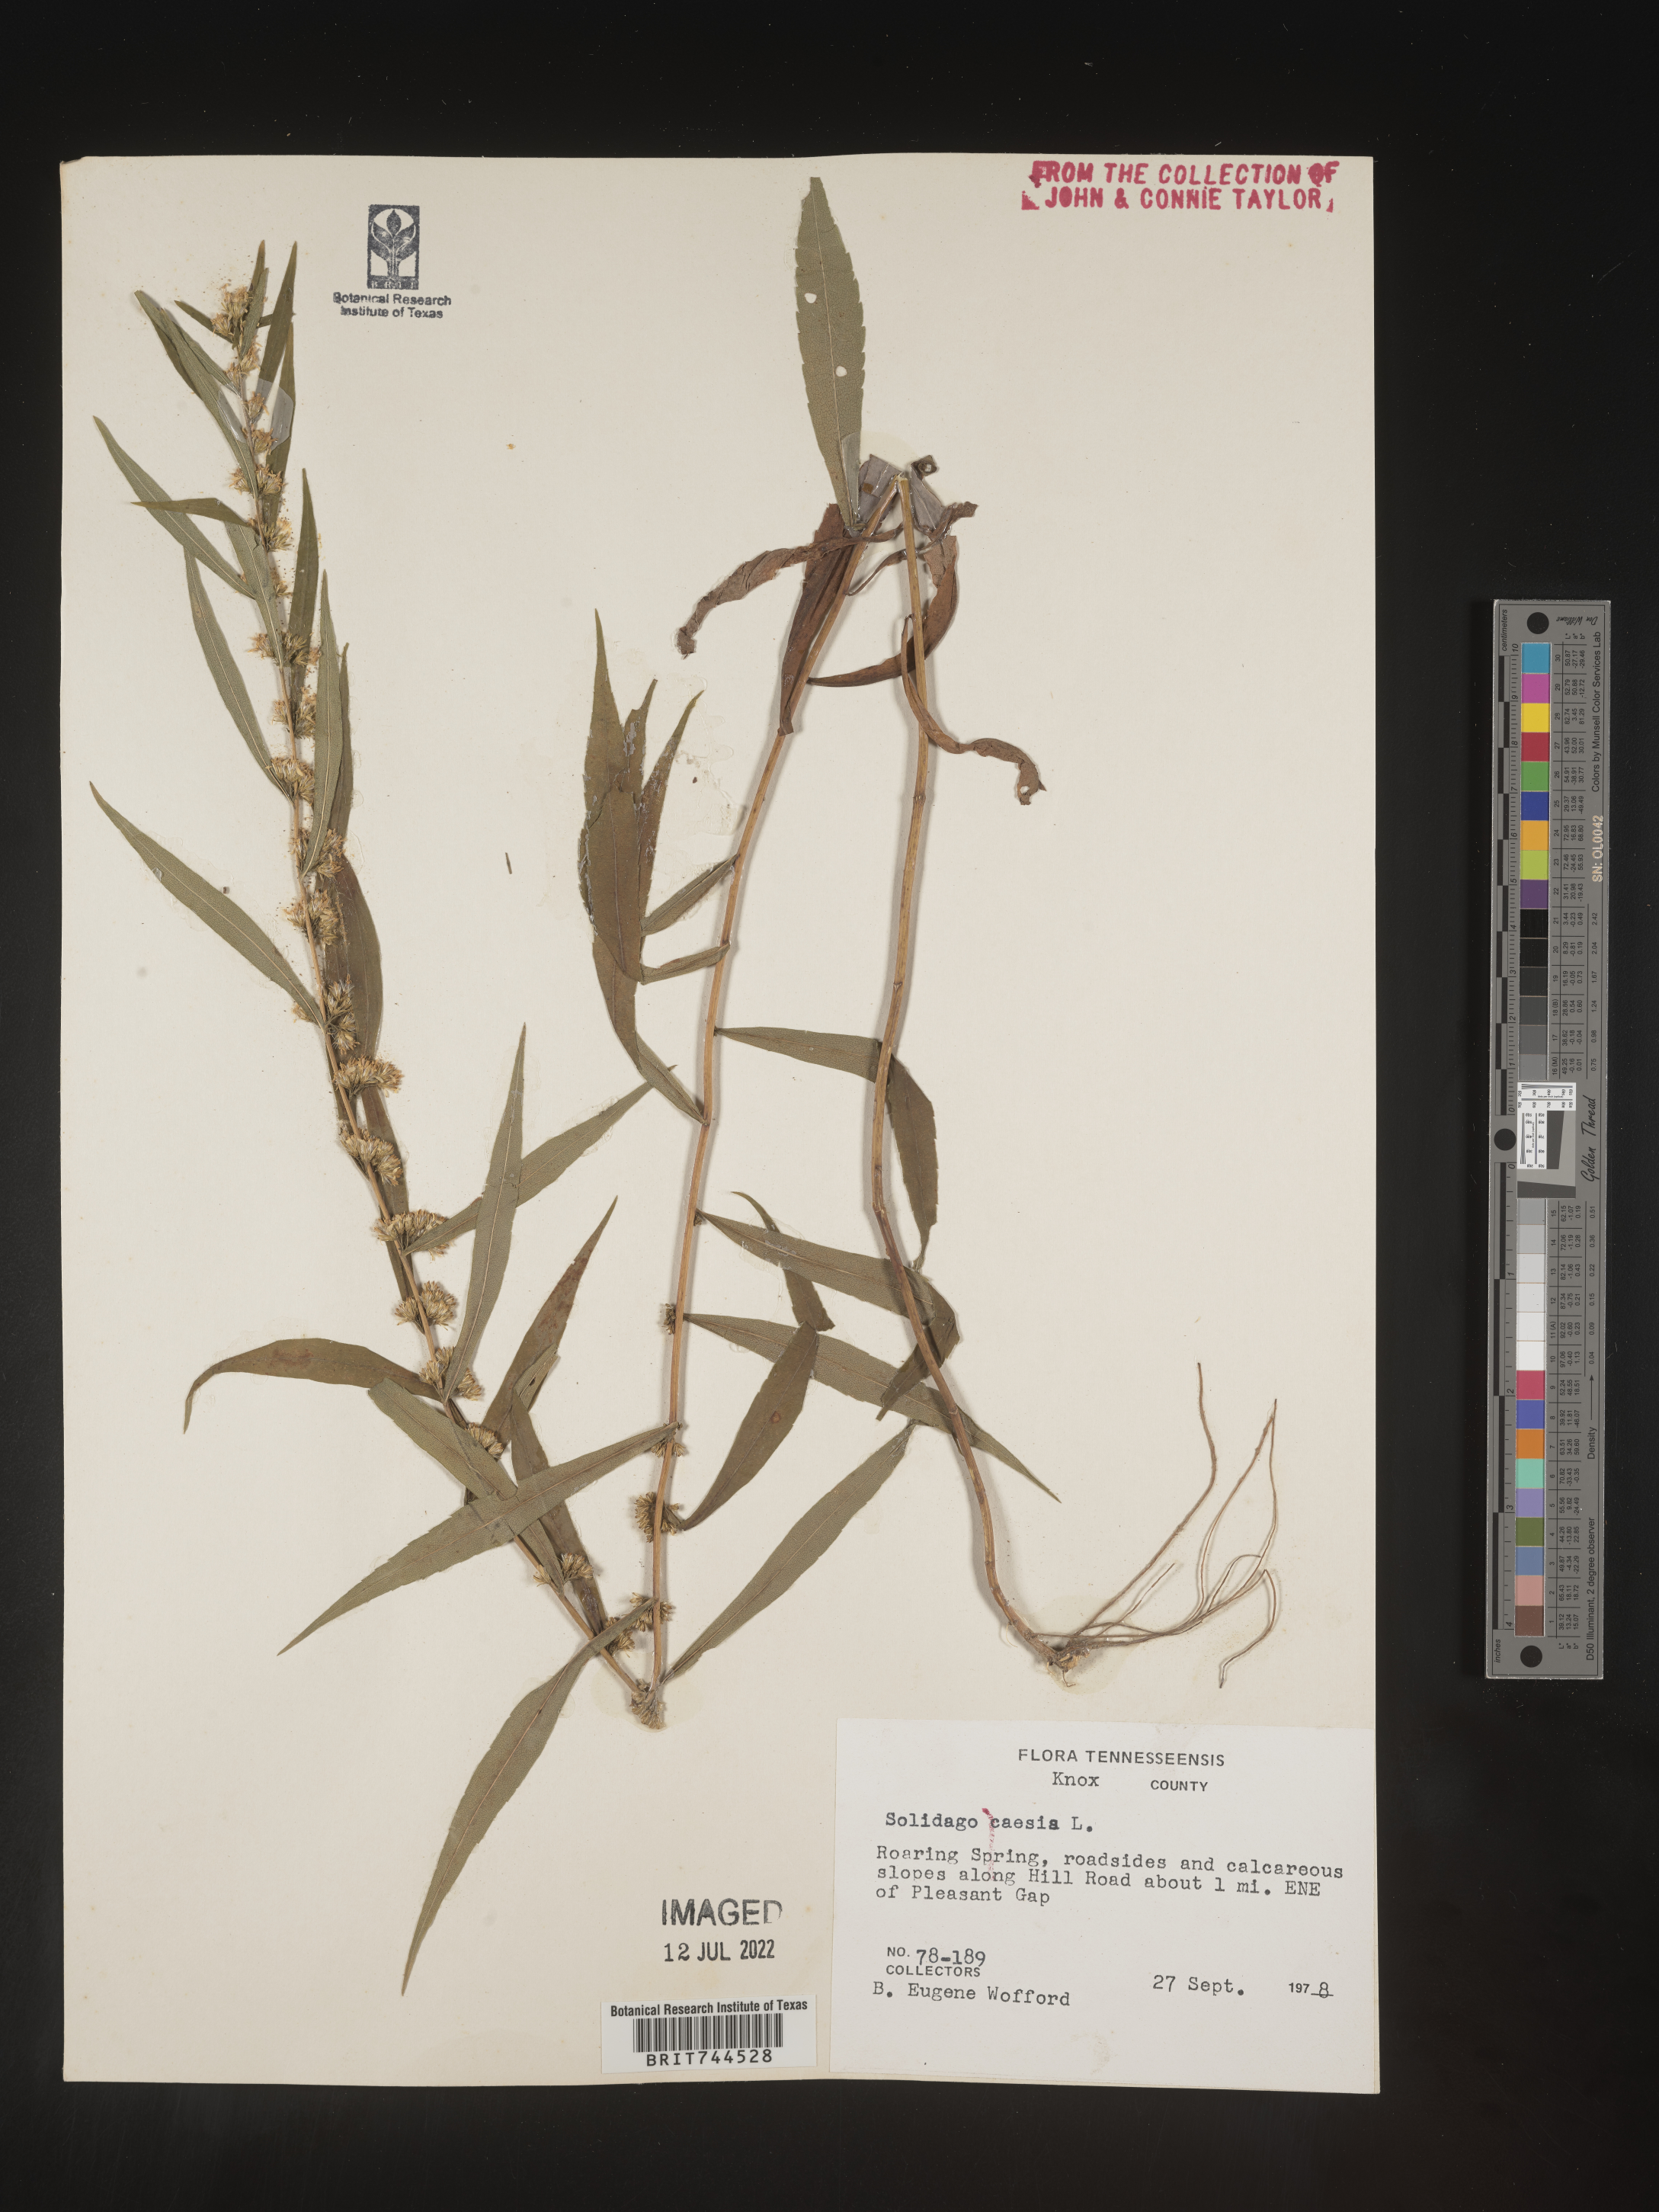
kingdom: Plantae
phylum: Tracheophyta
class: Magnoliopsida
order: Asterales
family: Asteraceae
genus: Solidago
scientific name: Solidago caesia
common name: Woodland goldenrod
